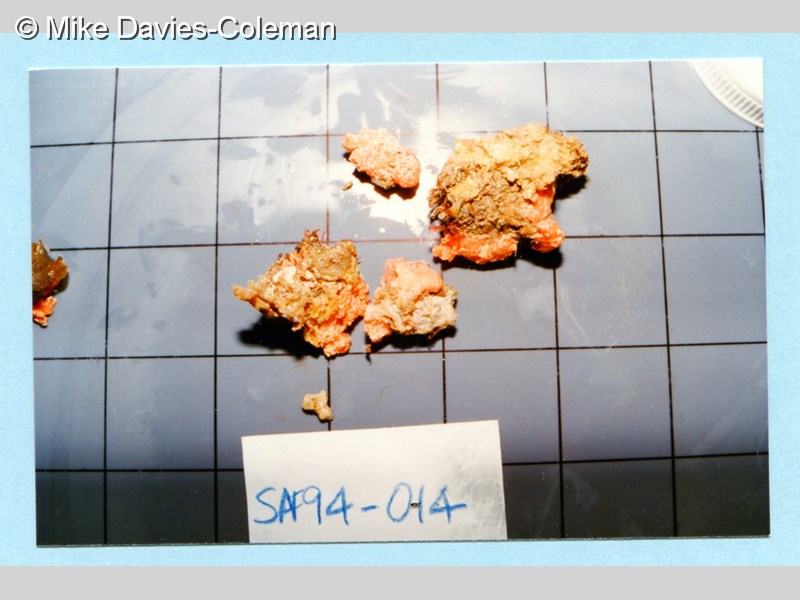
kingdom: Animalia
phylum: Cnidaria
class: Anthozoa
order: Malacalcyonacea
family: Alcyoniidae
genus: Alcyonium
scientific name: Alcyonium fauri
